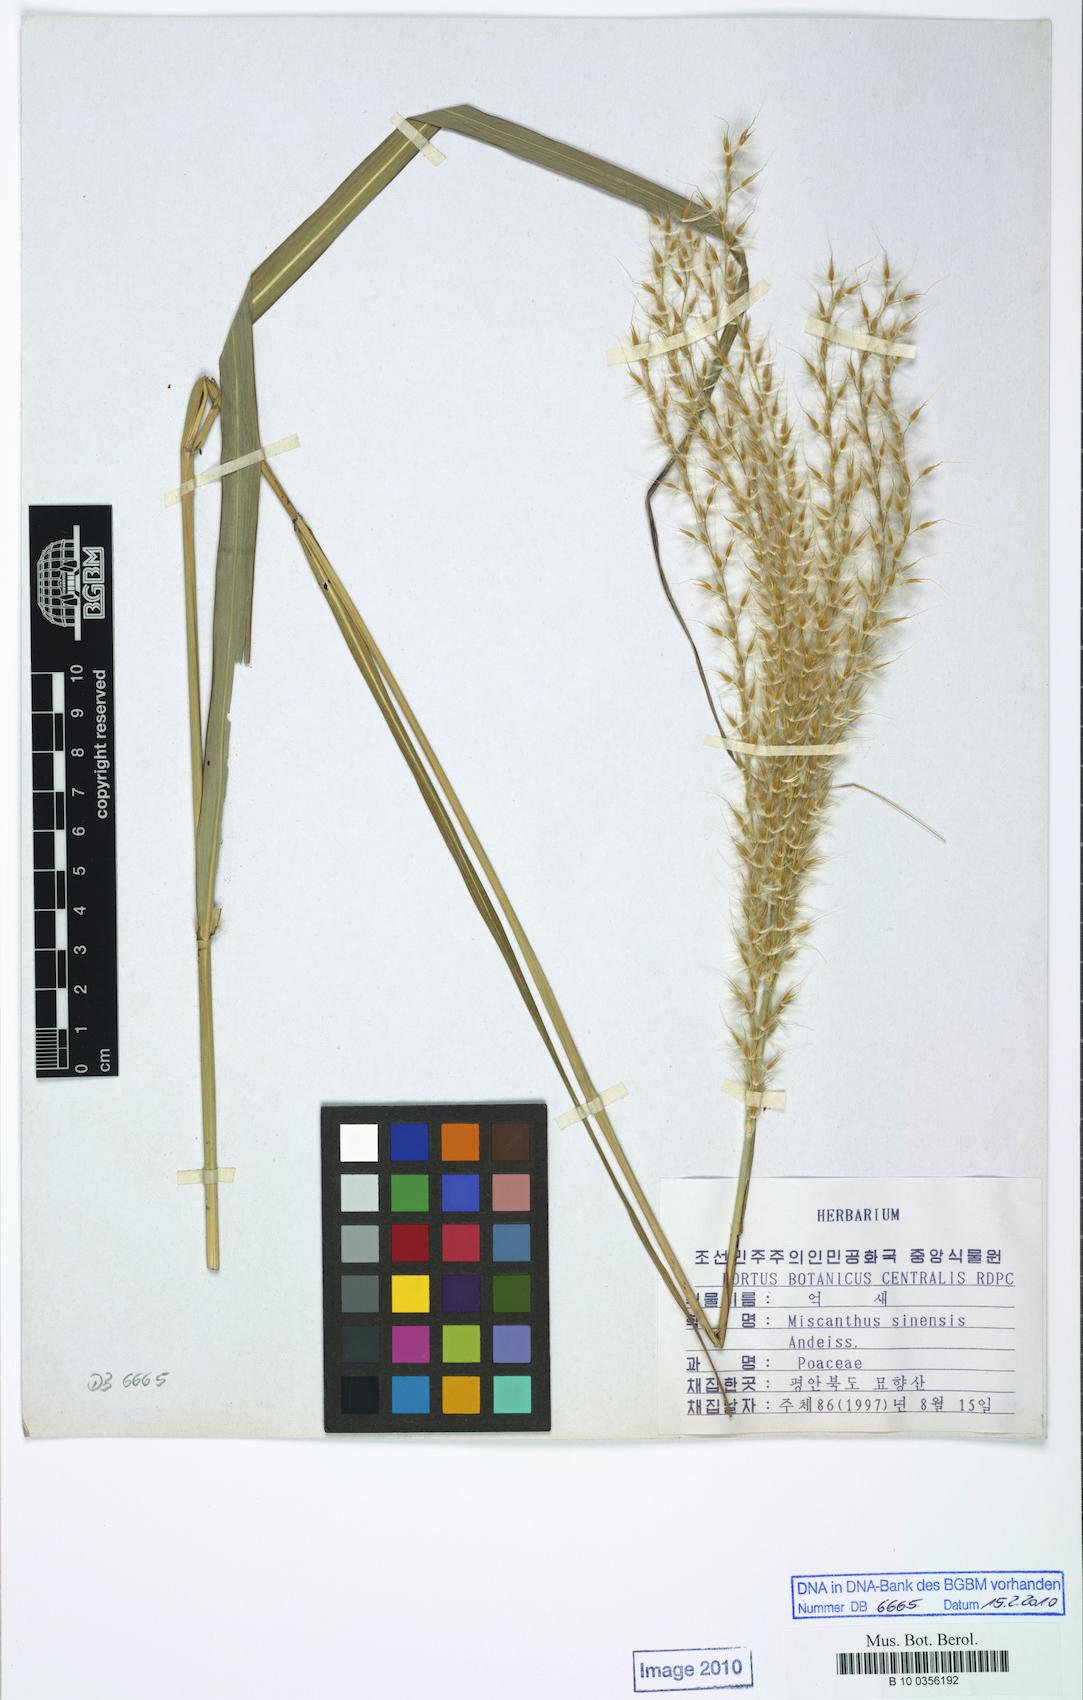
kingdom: Plantae
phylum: Tracheophyta
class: Liliopsida
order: Poales
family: Poaceae
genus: Miscanthus
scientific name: Miscanthus sinensis
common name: Chinese silvergrass
